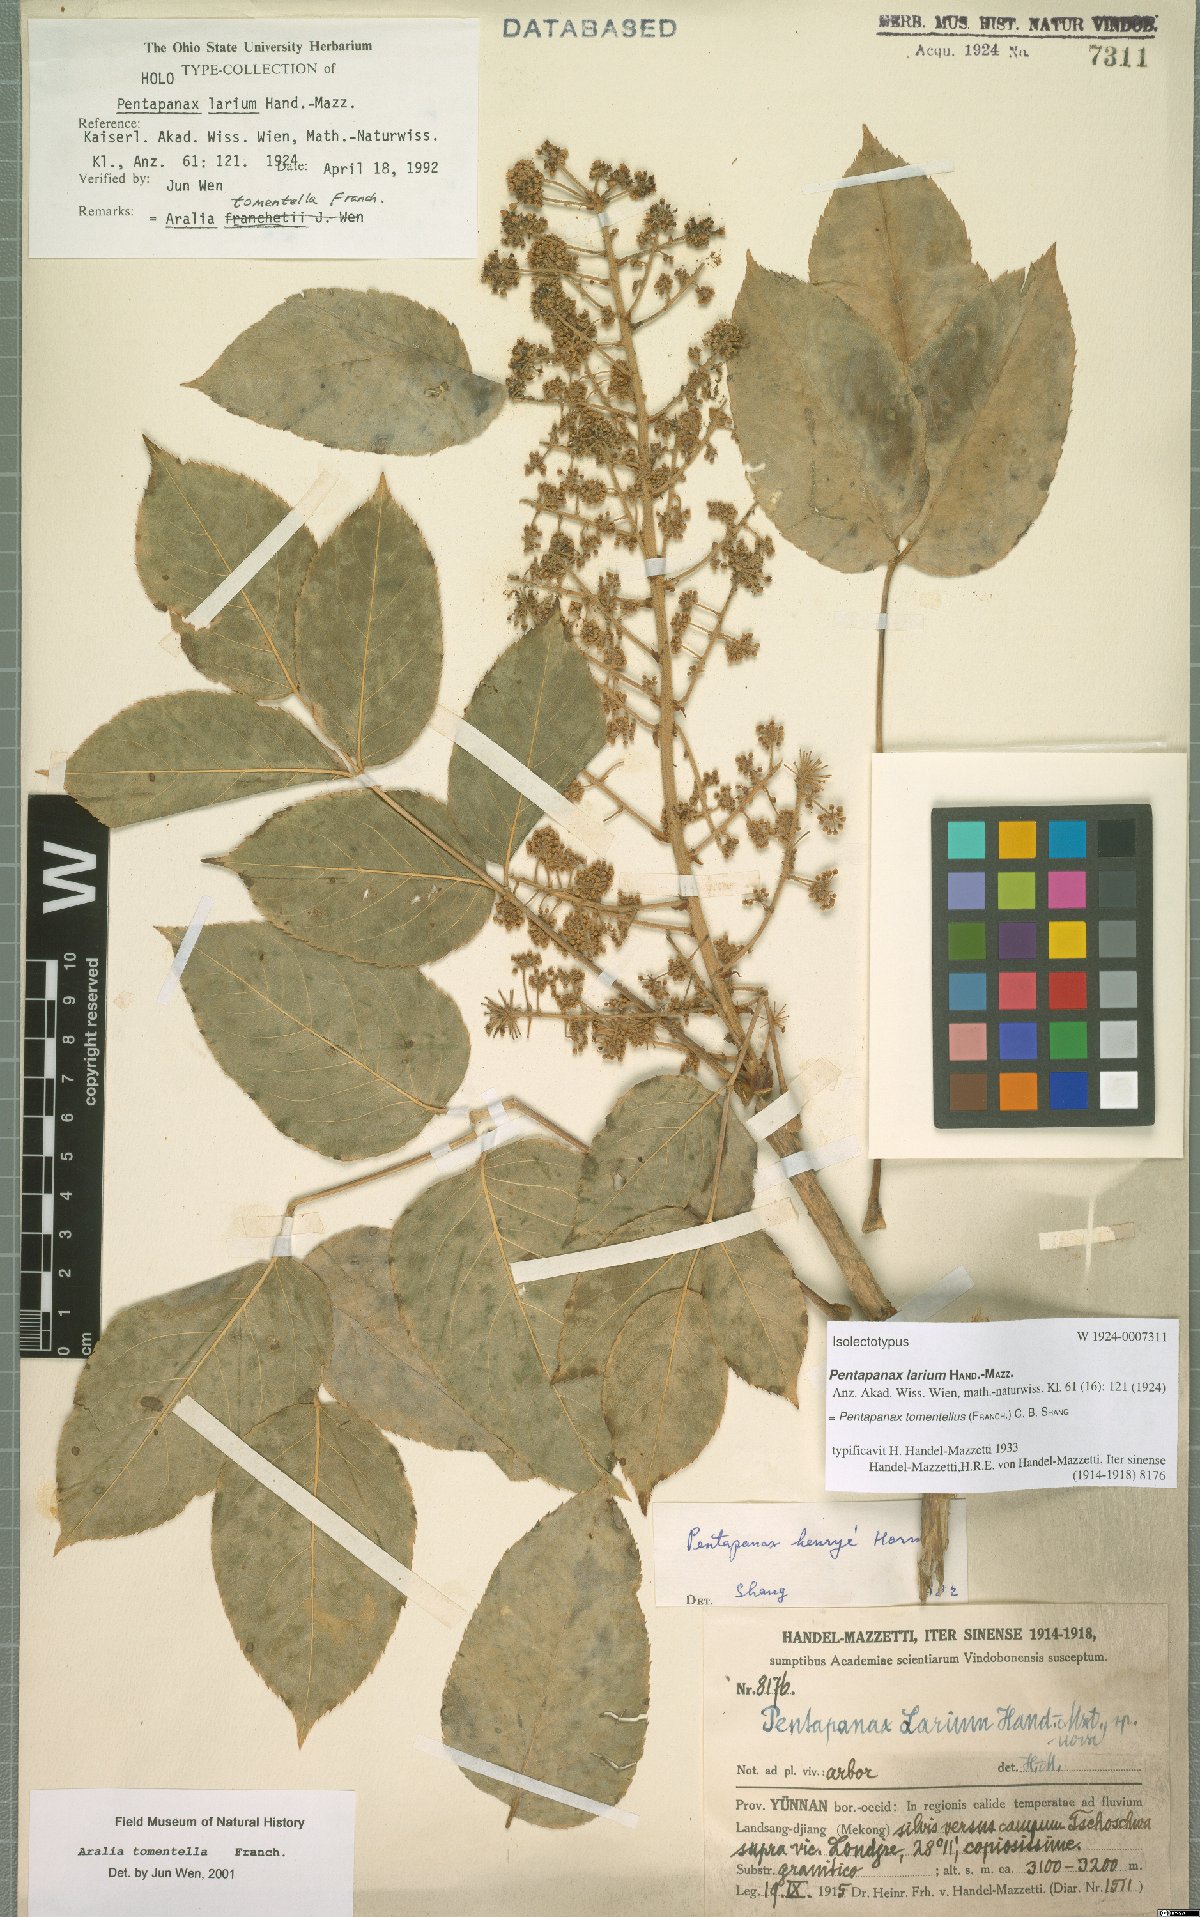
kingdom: Plantae
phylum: Tracheophyta
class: Magnoliopsida
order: Apiales
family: Araliaceae
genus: Aralia
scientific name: Aralia tomentella
